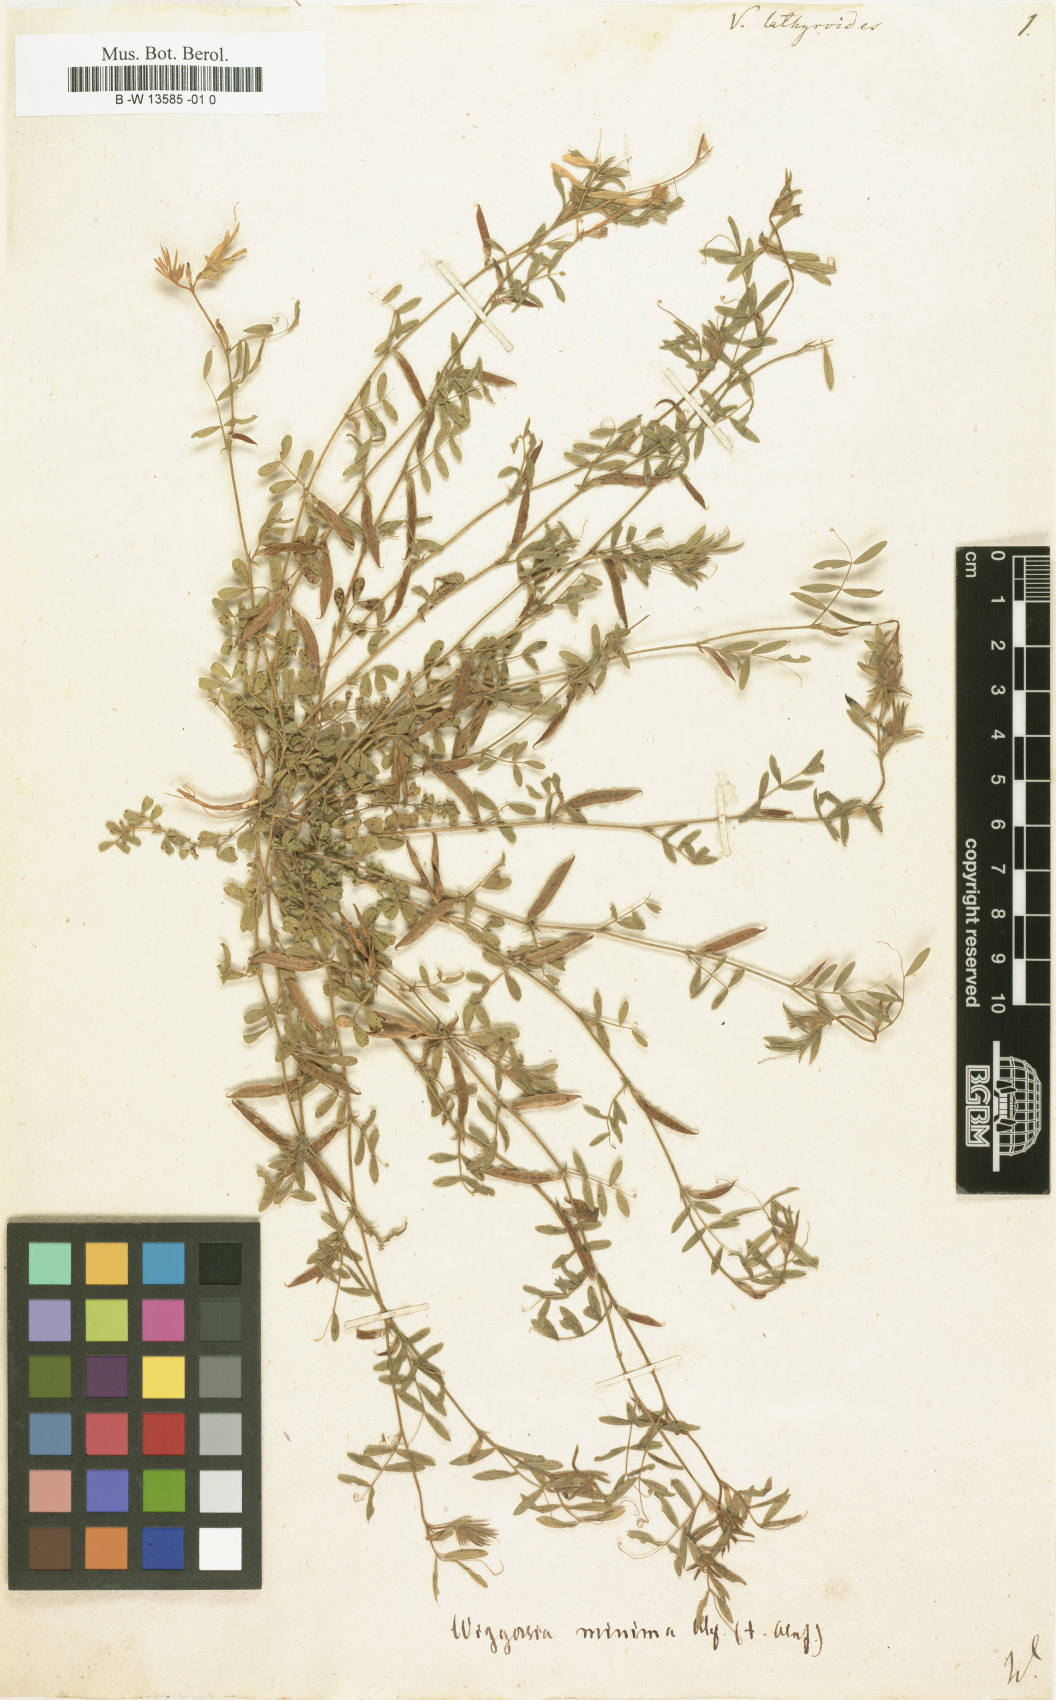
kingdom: Plantae
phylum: Tracheophyta
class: Magnoliopsida
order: Fabales
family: Fabaceae
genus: Vicia
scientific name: Vicia lathyroides
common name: Spring vetch
